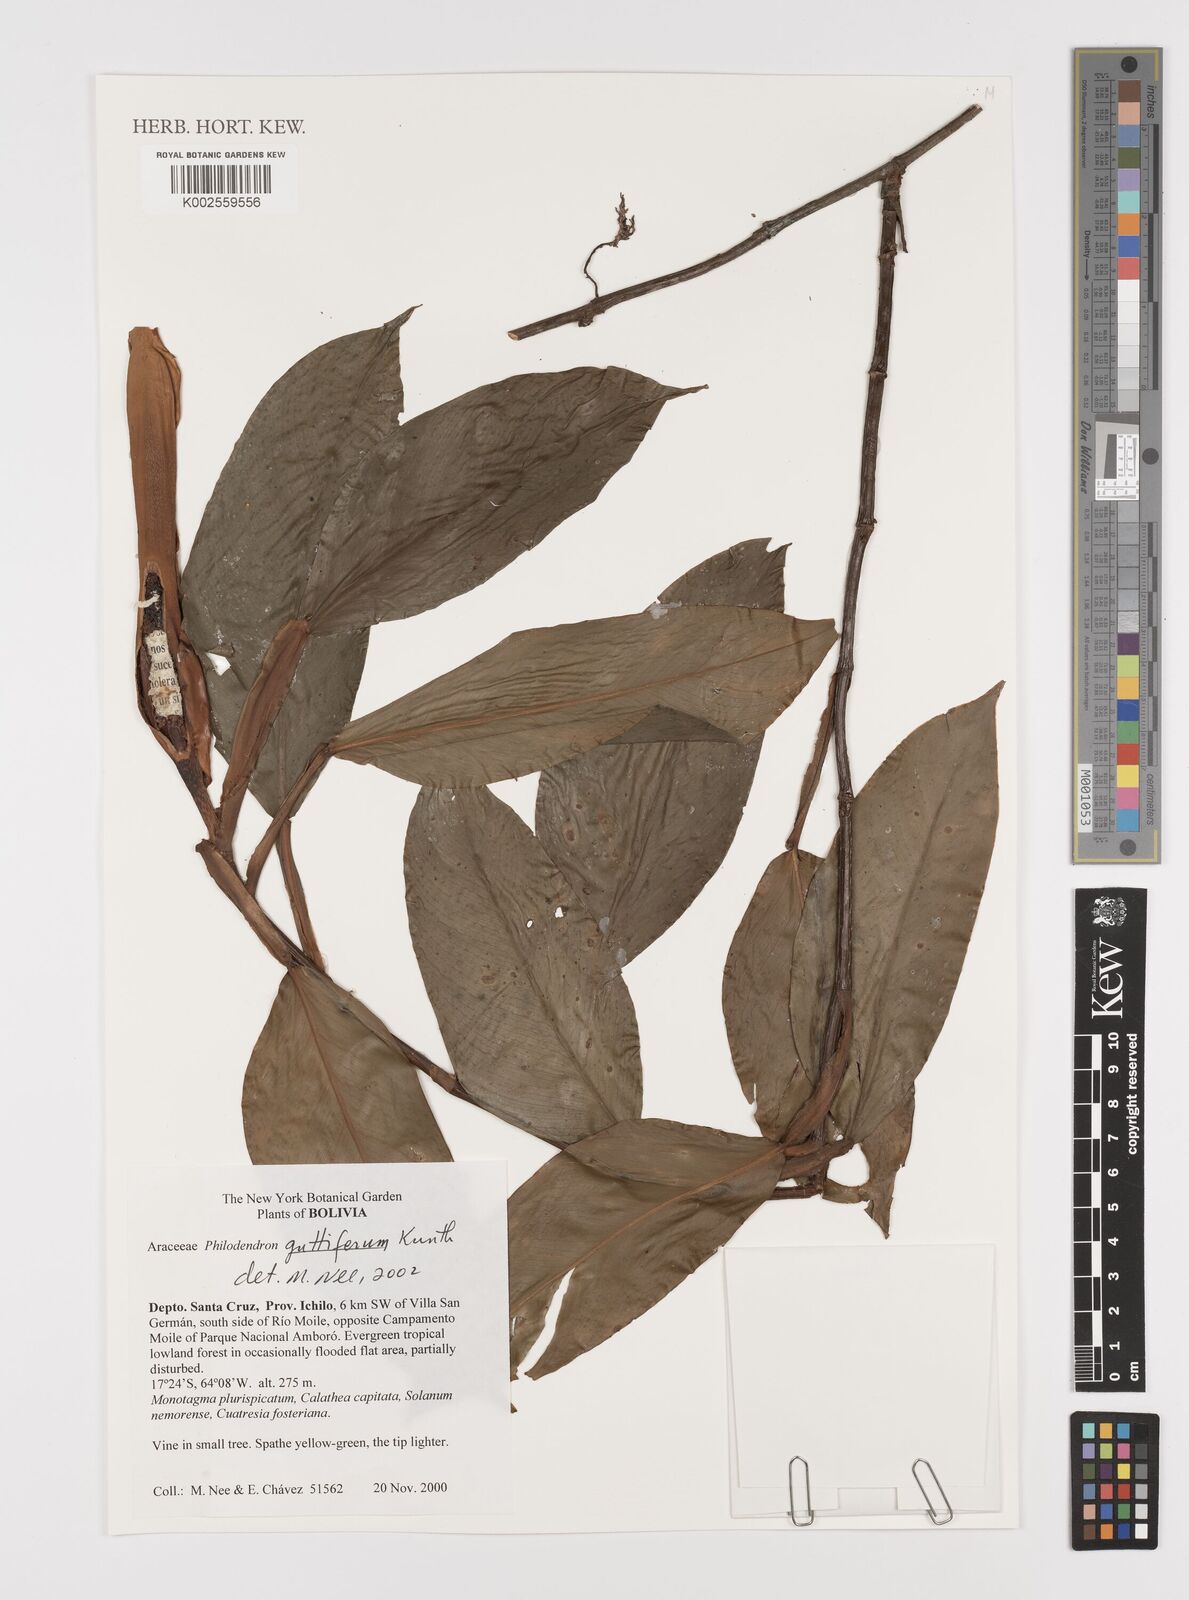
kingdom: Plantae
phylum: Tracheophyta
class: Liliopsida
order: Alismatales
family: Araceae
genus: Philodendron
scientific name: Philodendron guttiferum
